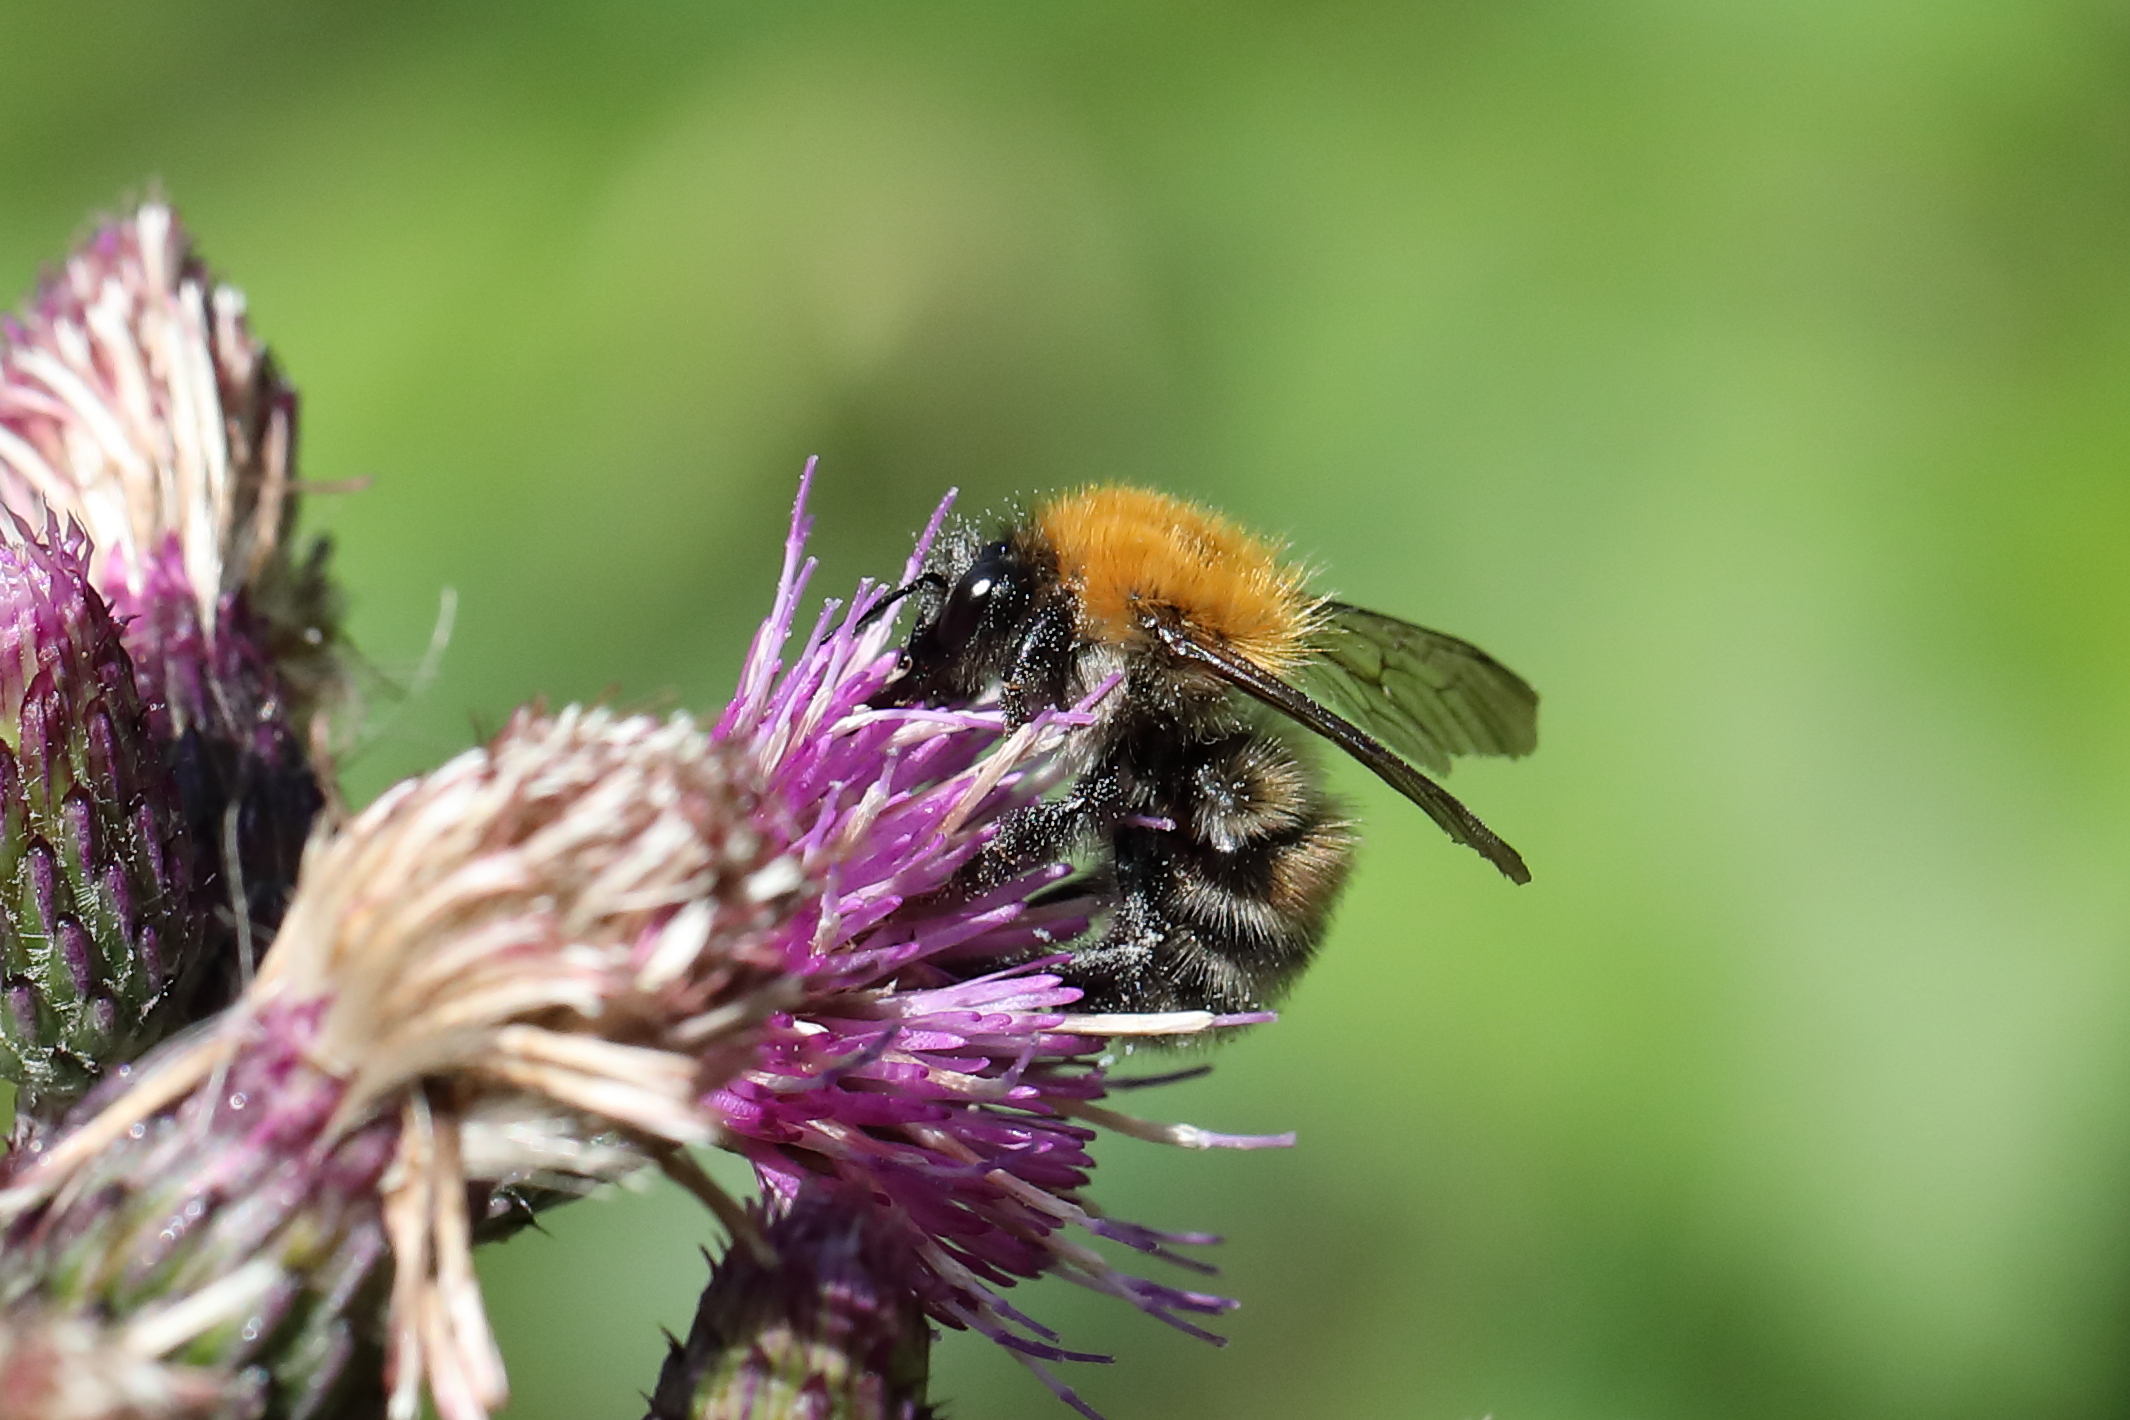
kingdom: Animalia
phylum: Arthropoda
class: Insecta
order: Hymenoptera
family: Apidae
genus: Bombus
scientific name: Bombus schrencki
